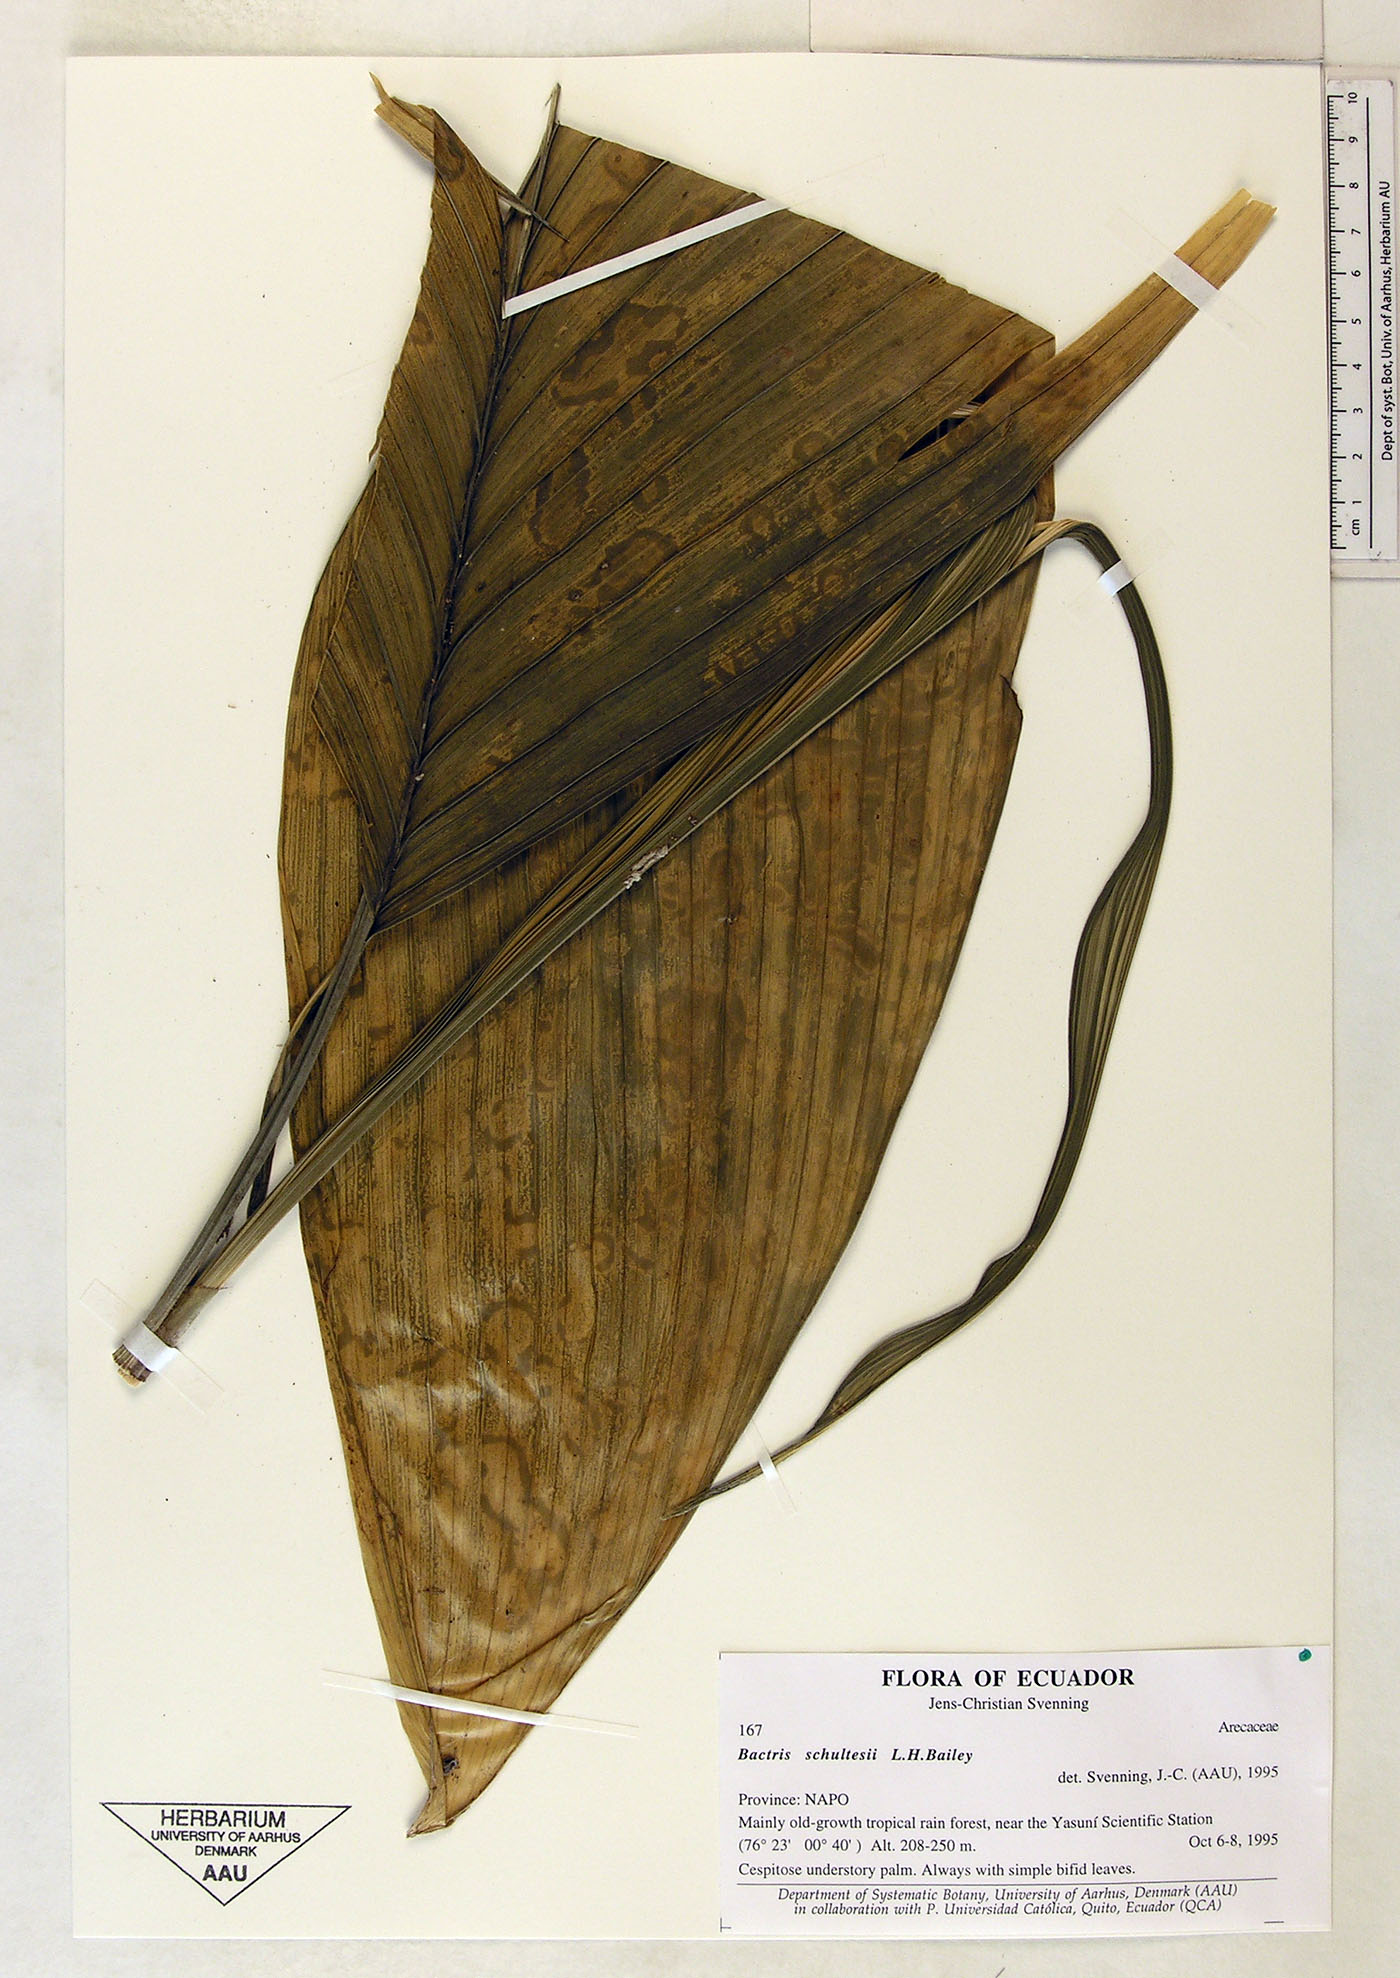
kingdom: Plantae
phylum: Tracheophyta
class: Liliopsida
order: Arecales
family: Arecaceae
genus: Bactris
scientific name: Bactris schultesii
